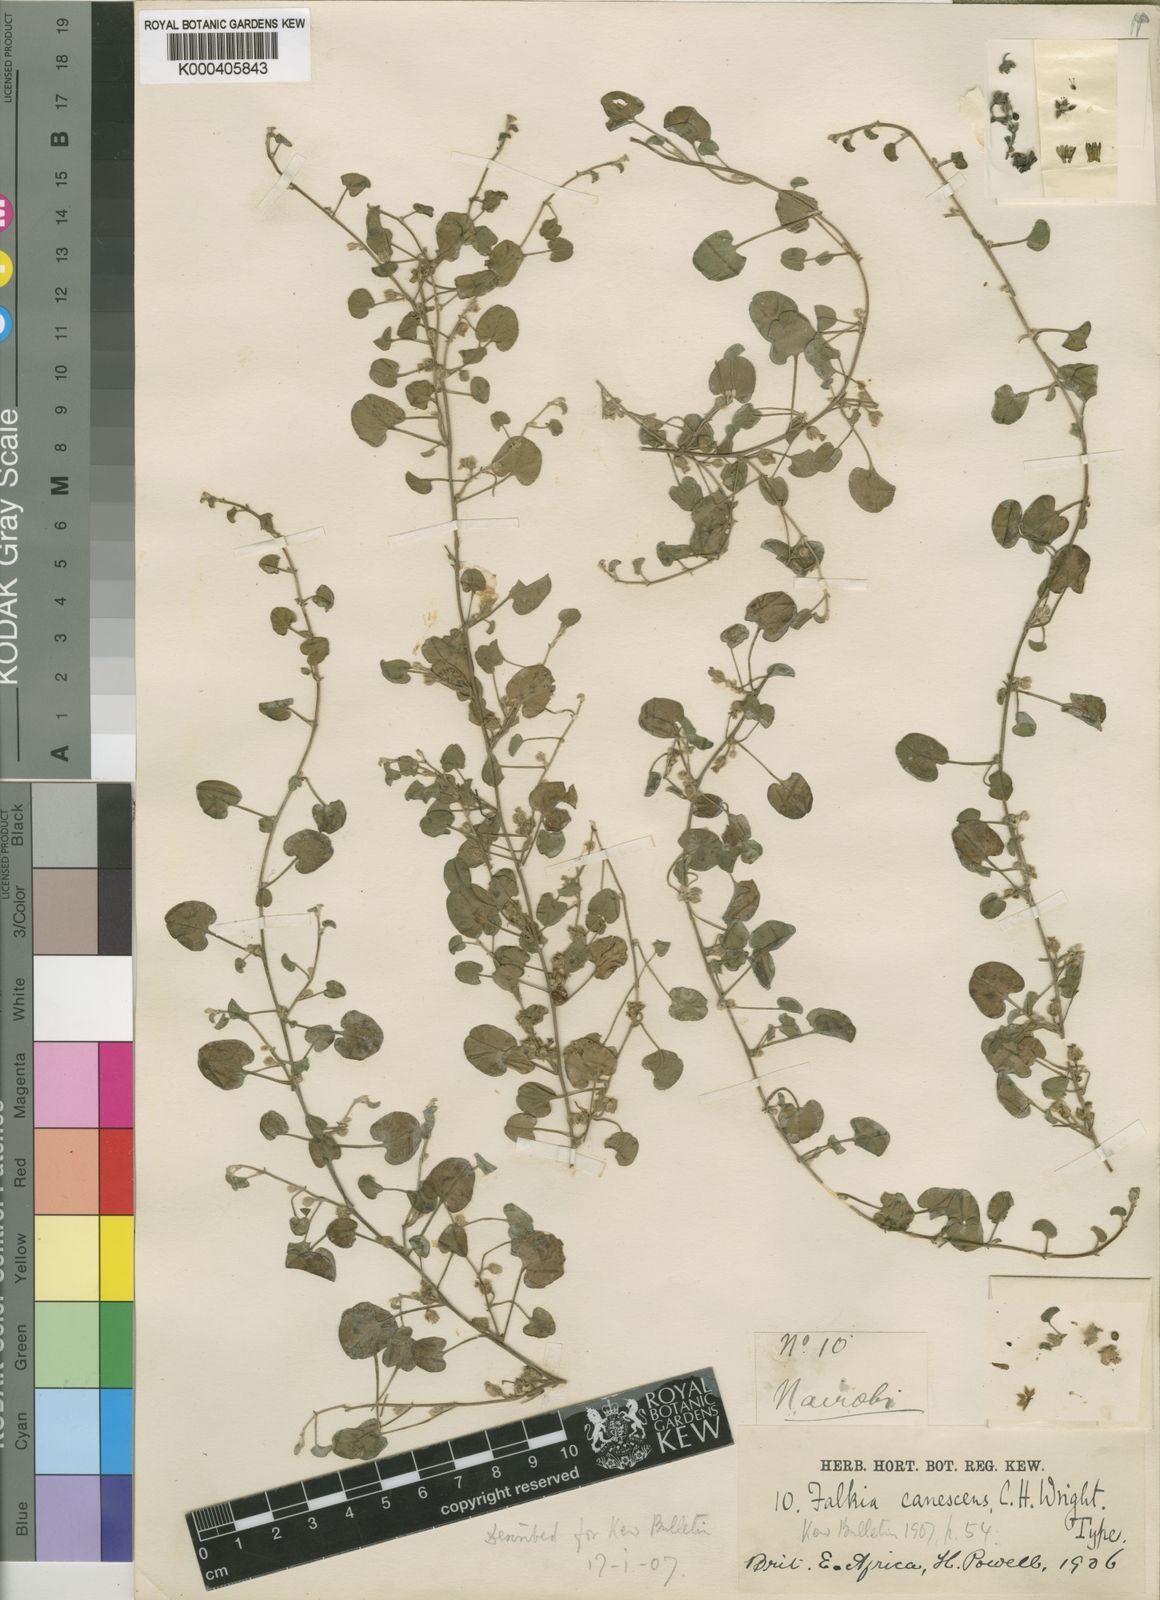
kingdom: Plantae
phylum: Tracheophyta
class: Magnoliopsida
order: Solanales
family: Convolvulaceae
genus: Falkia
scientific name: Falkia canescens
